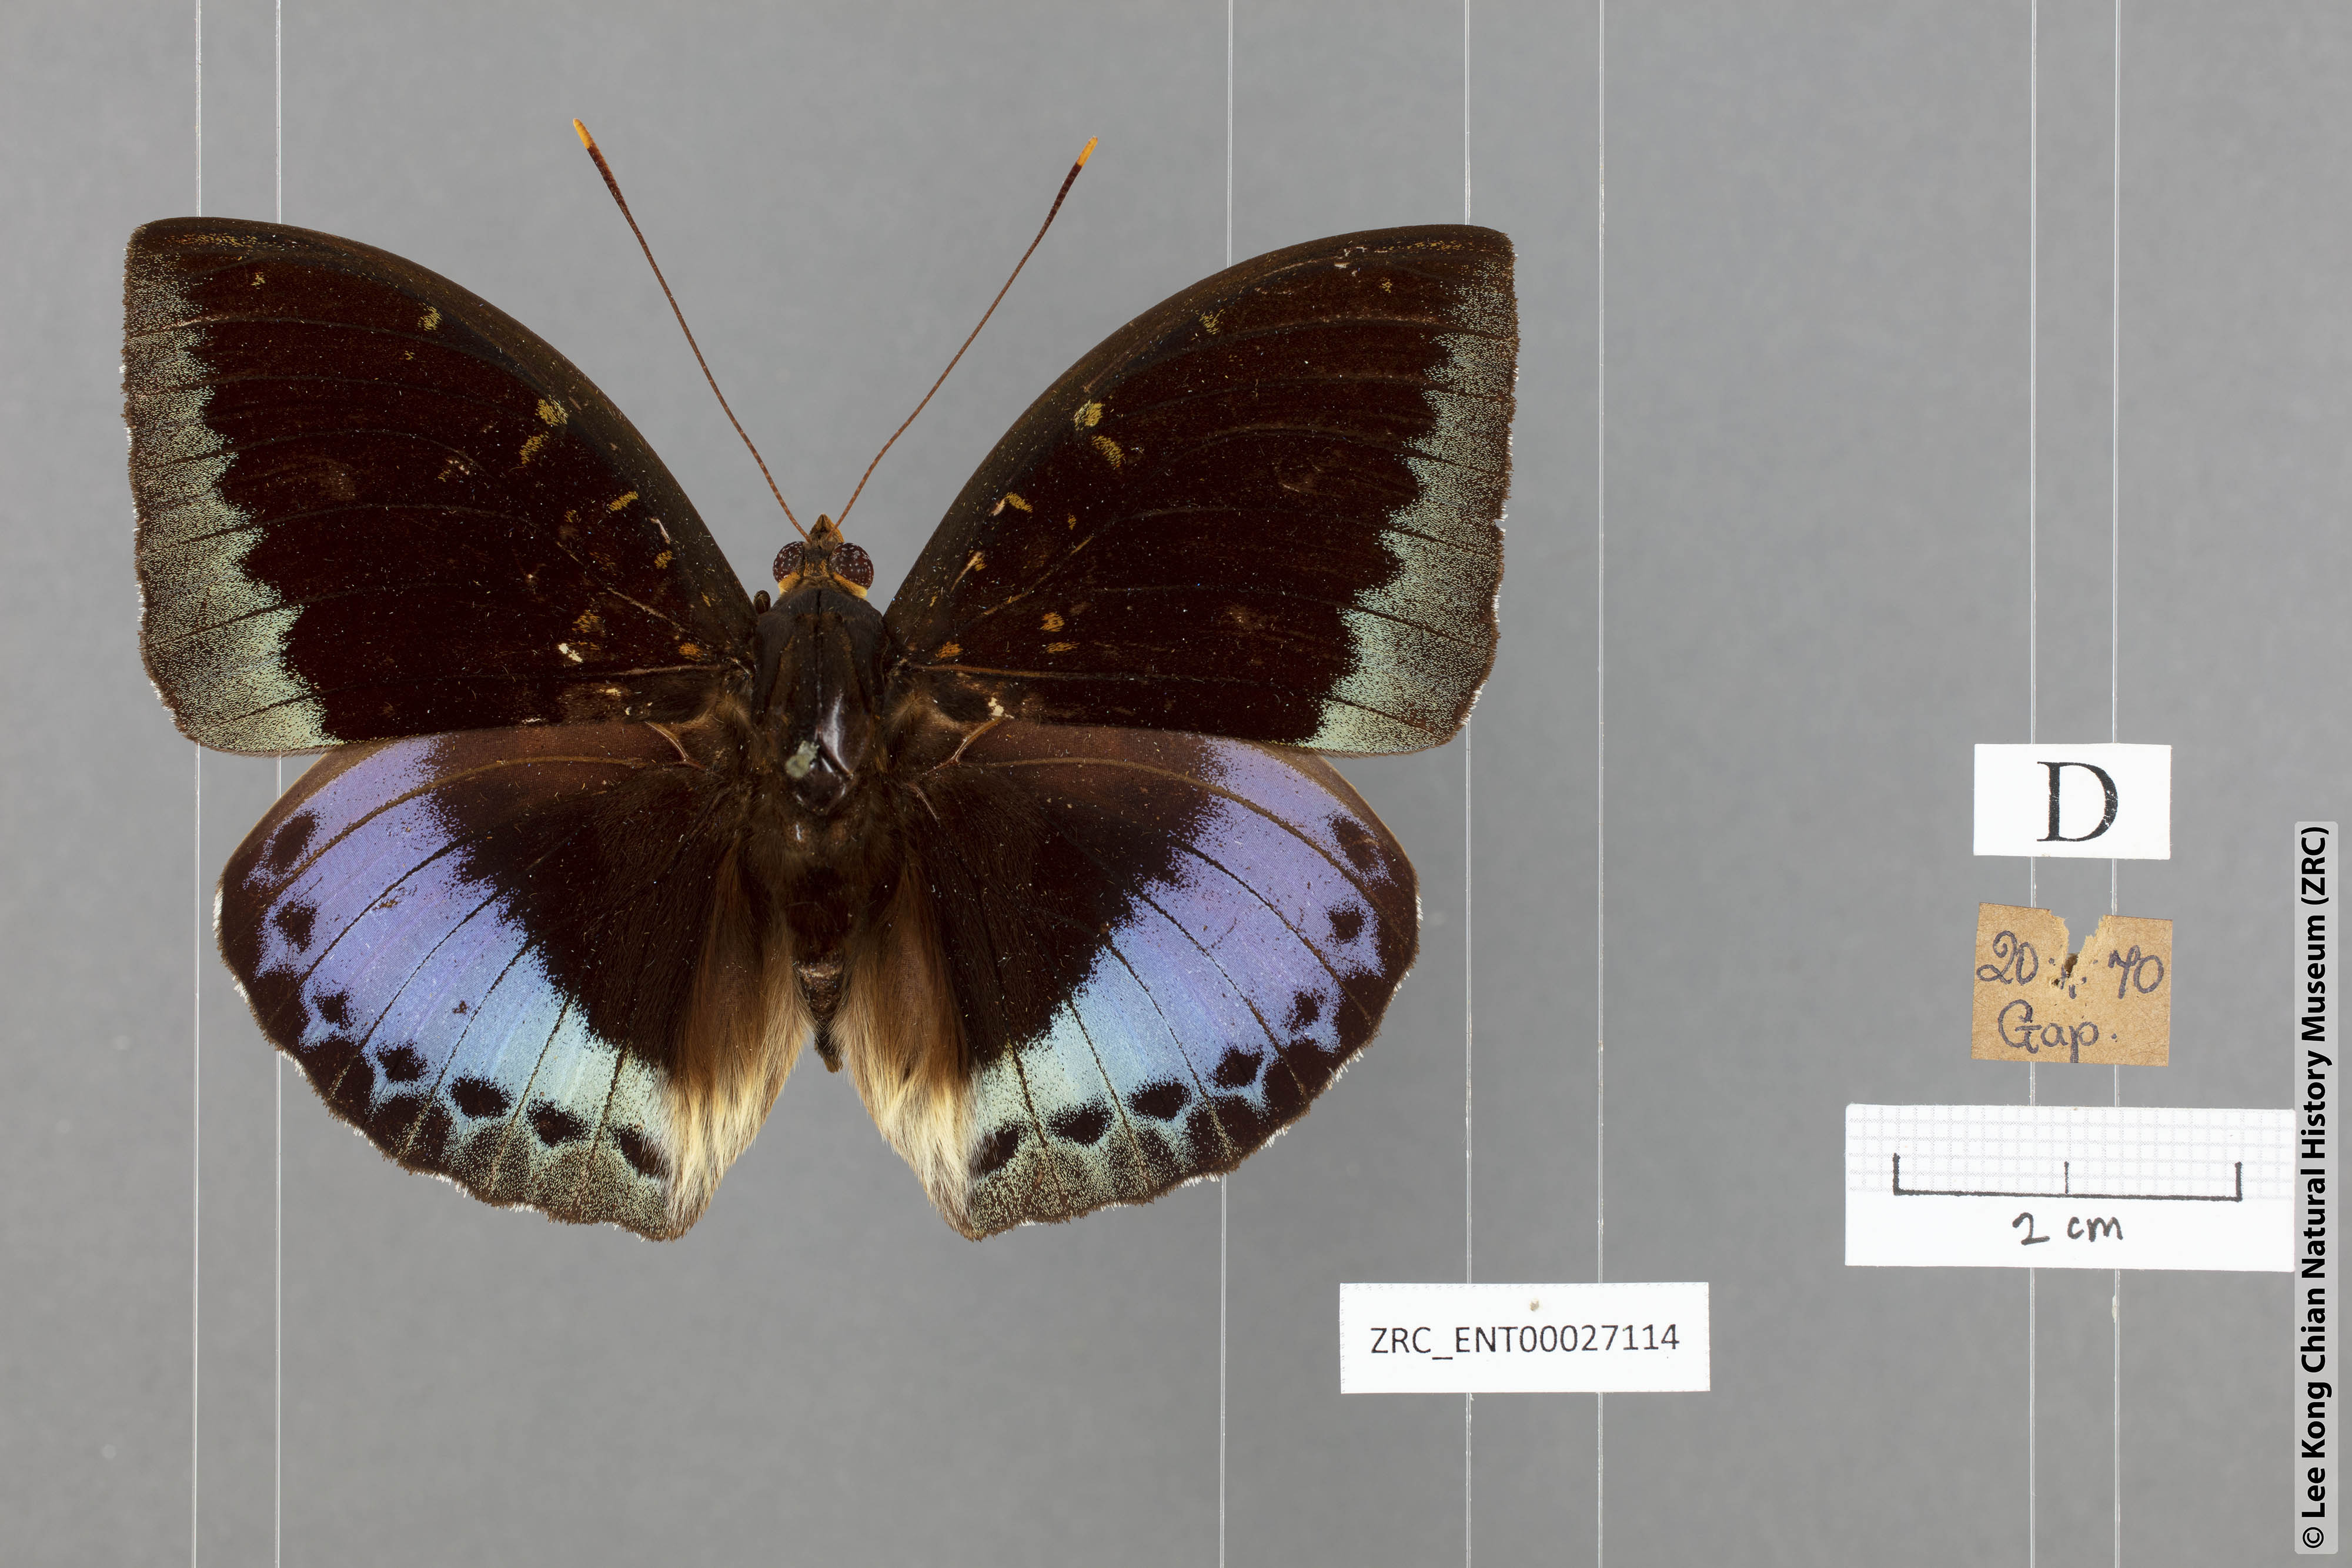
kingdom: Animalia
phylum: Arthropoda
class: Insecta
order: Lepidoptera
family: Nymphalidae
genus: Lexias
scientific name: Lexias pardalis
